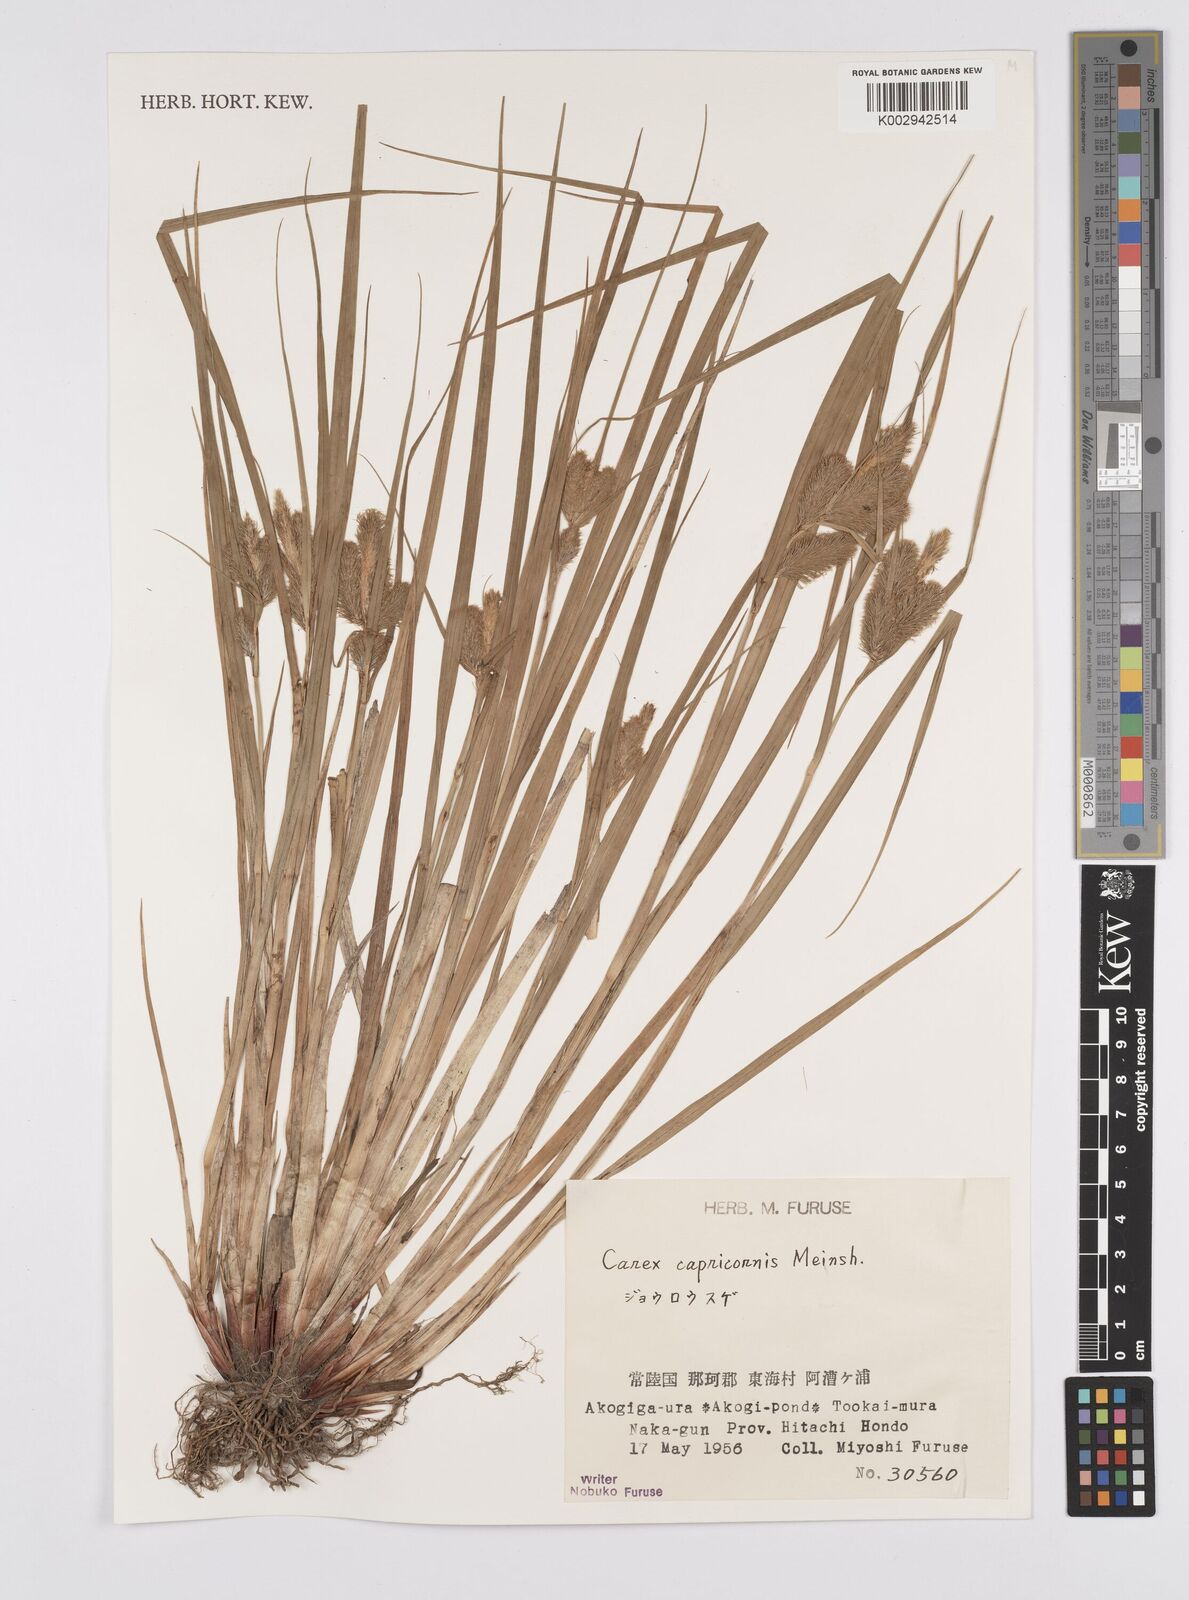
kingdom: Plantae
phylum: Tracheophyta
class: Liliopsida
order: Poales
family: Cyperaceae
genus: Carex
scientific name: Carex capricornis
